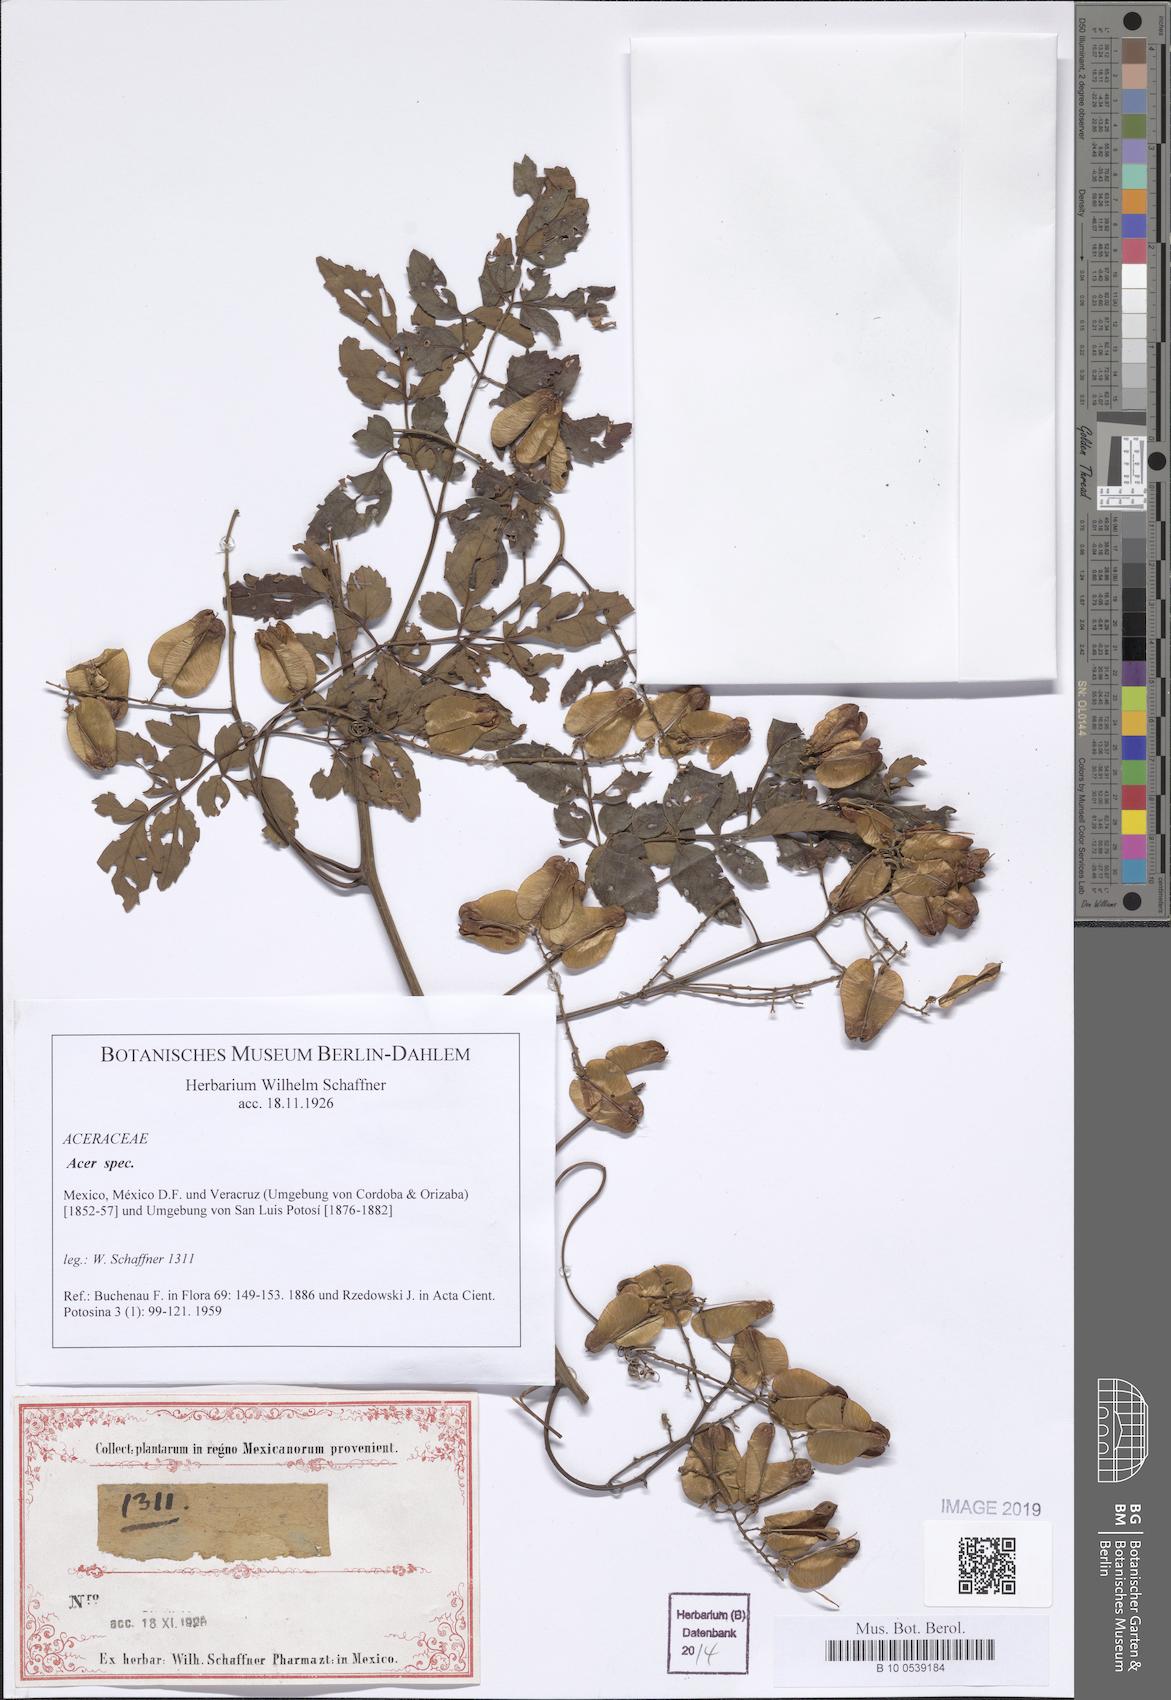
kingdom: Plantae
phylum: Tracheophyta
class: Magnoliopsida
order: Sapindales
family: Sapindaceae
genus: Acer
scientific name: Acer
